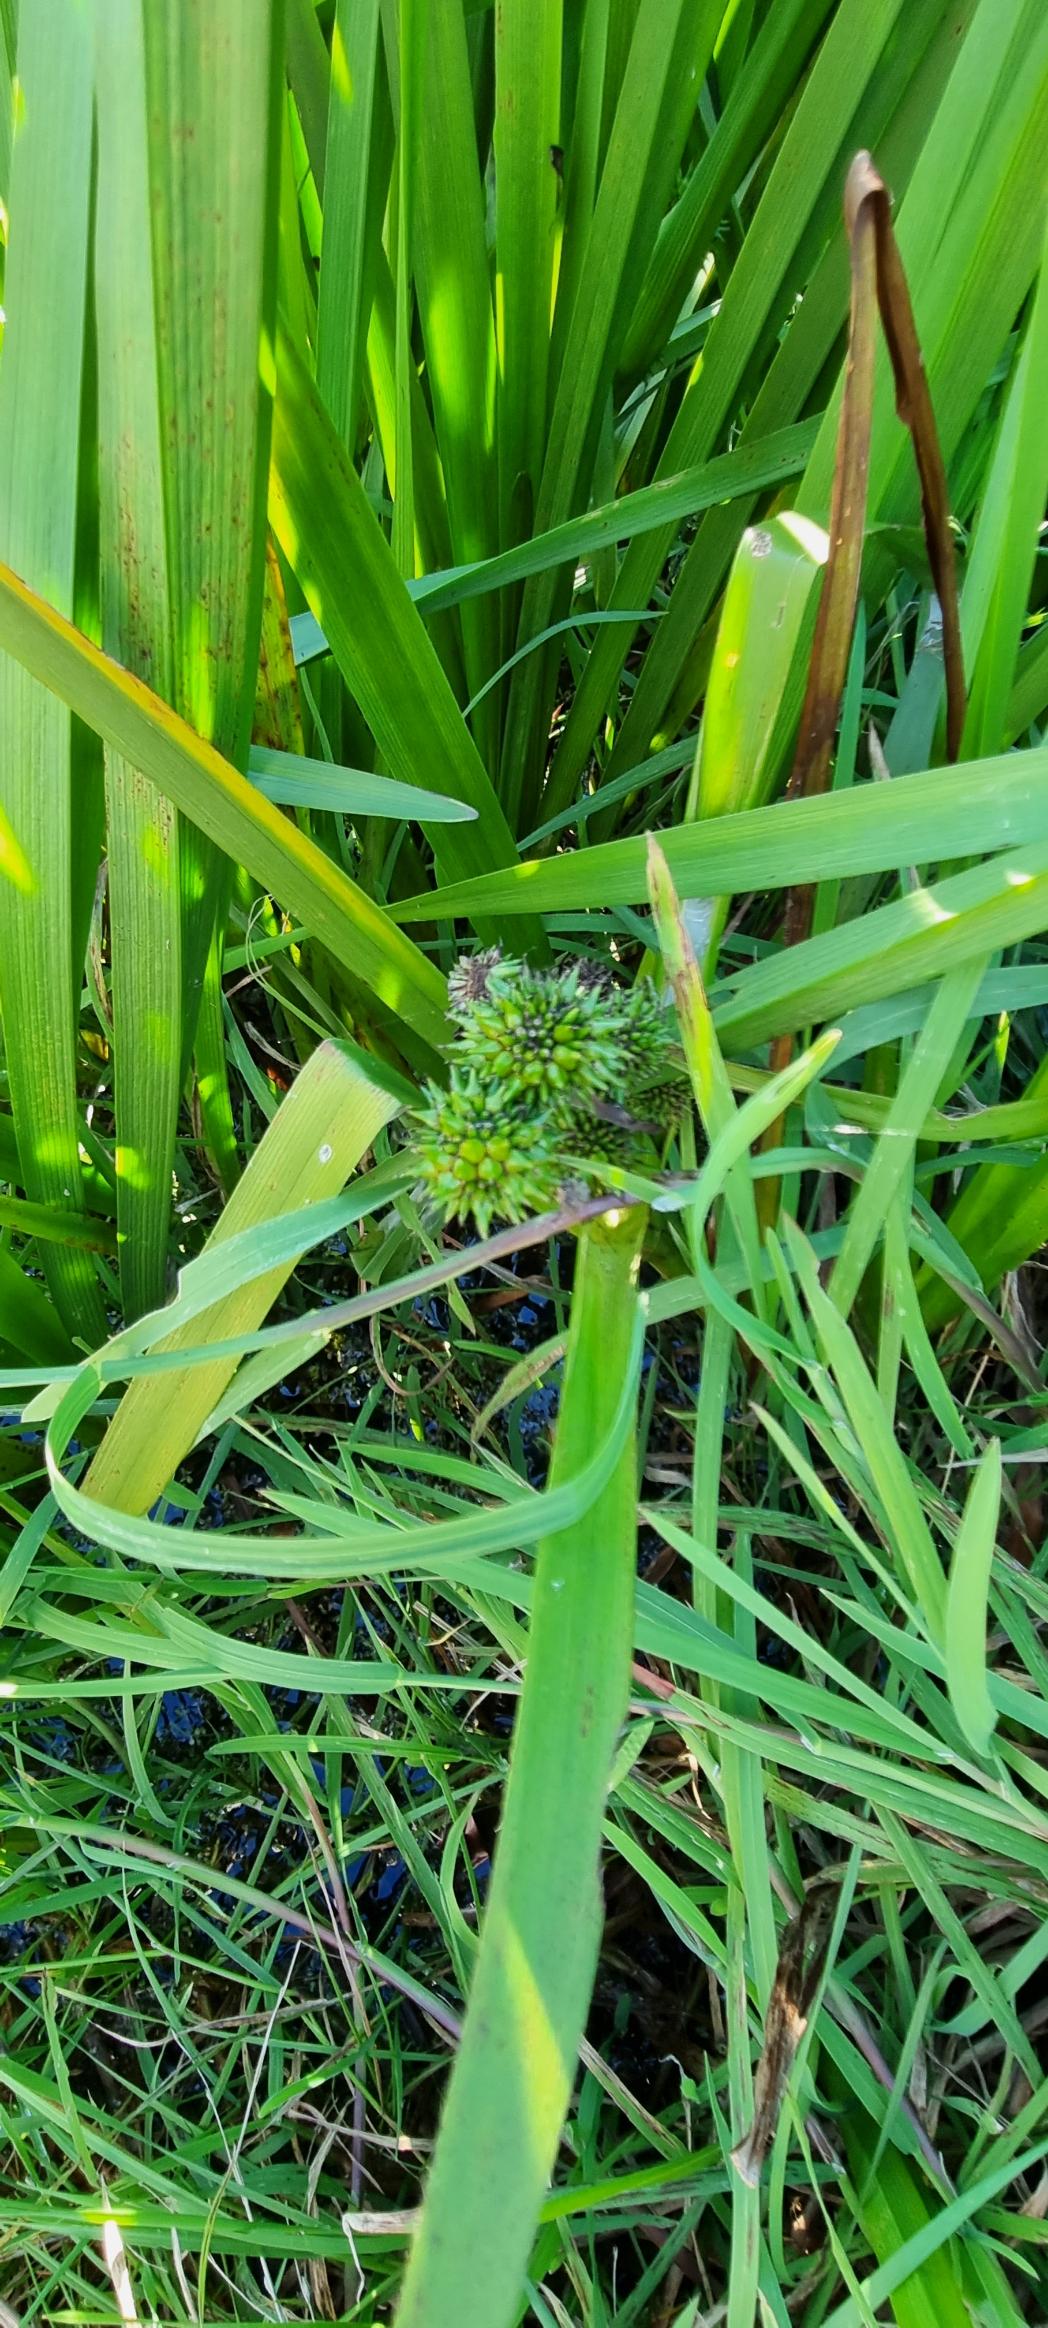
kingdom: Plantae
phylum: Tracheophyta
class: Liliopsida
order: Poales
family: Typhaceae
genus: Sparganium
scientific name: Sparganium erectum
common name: Grenet pindsvineknop
